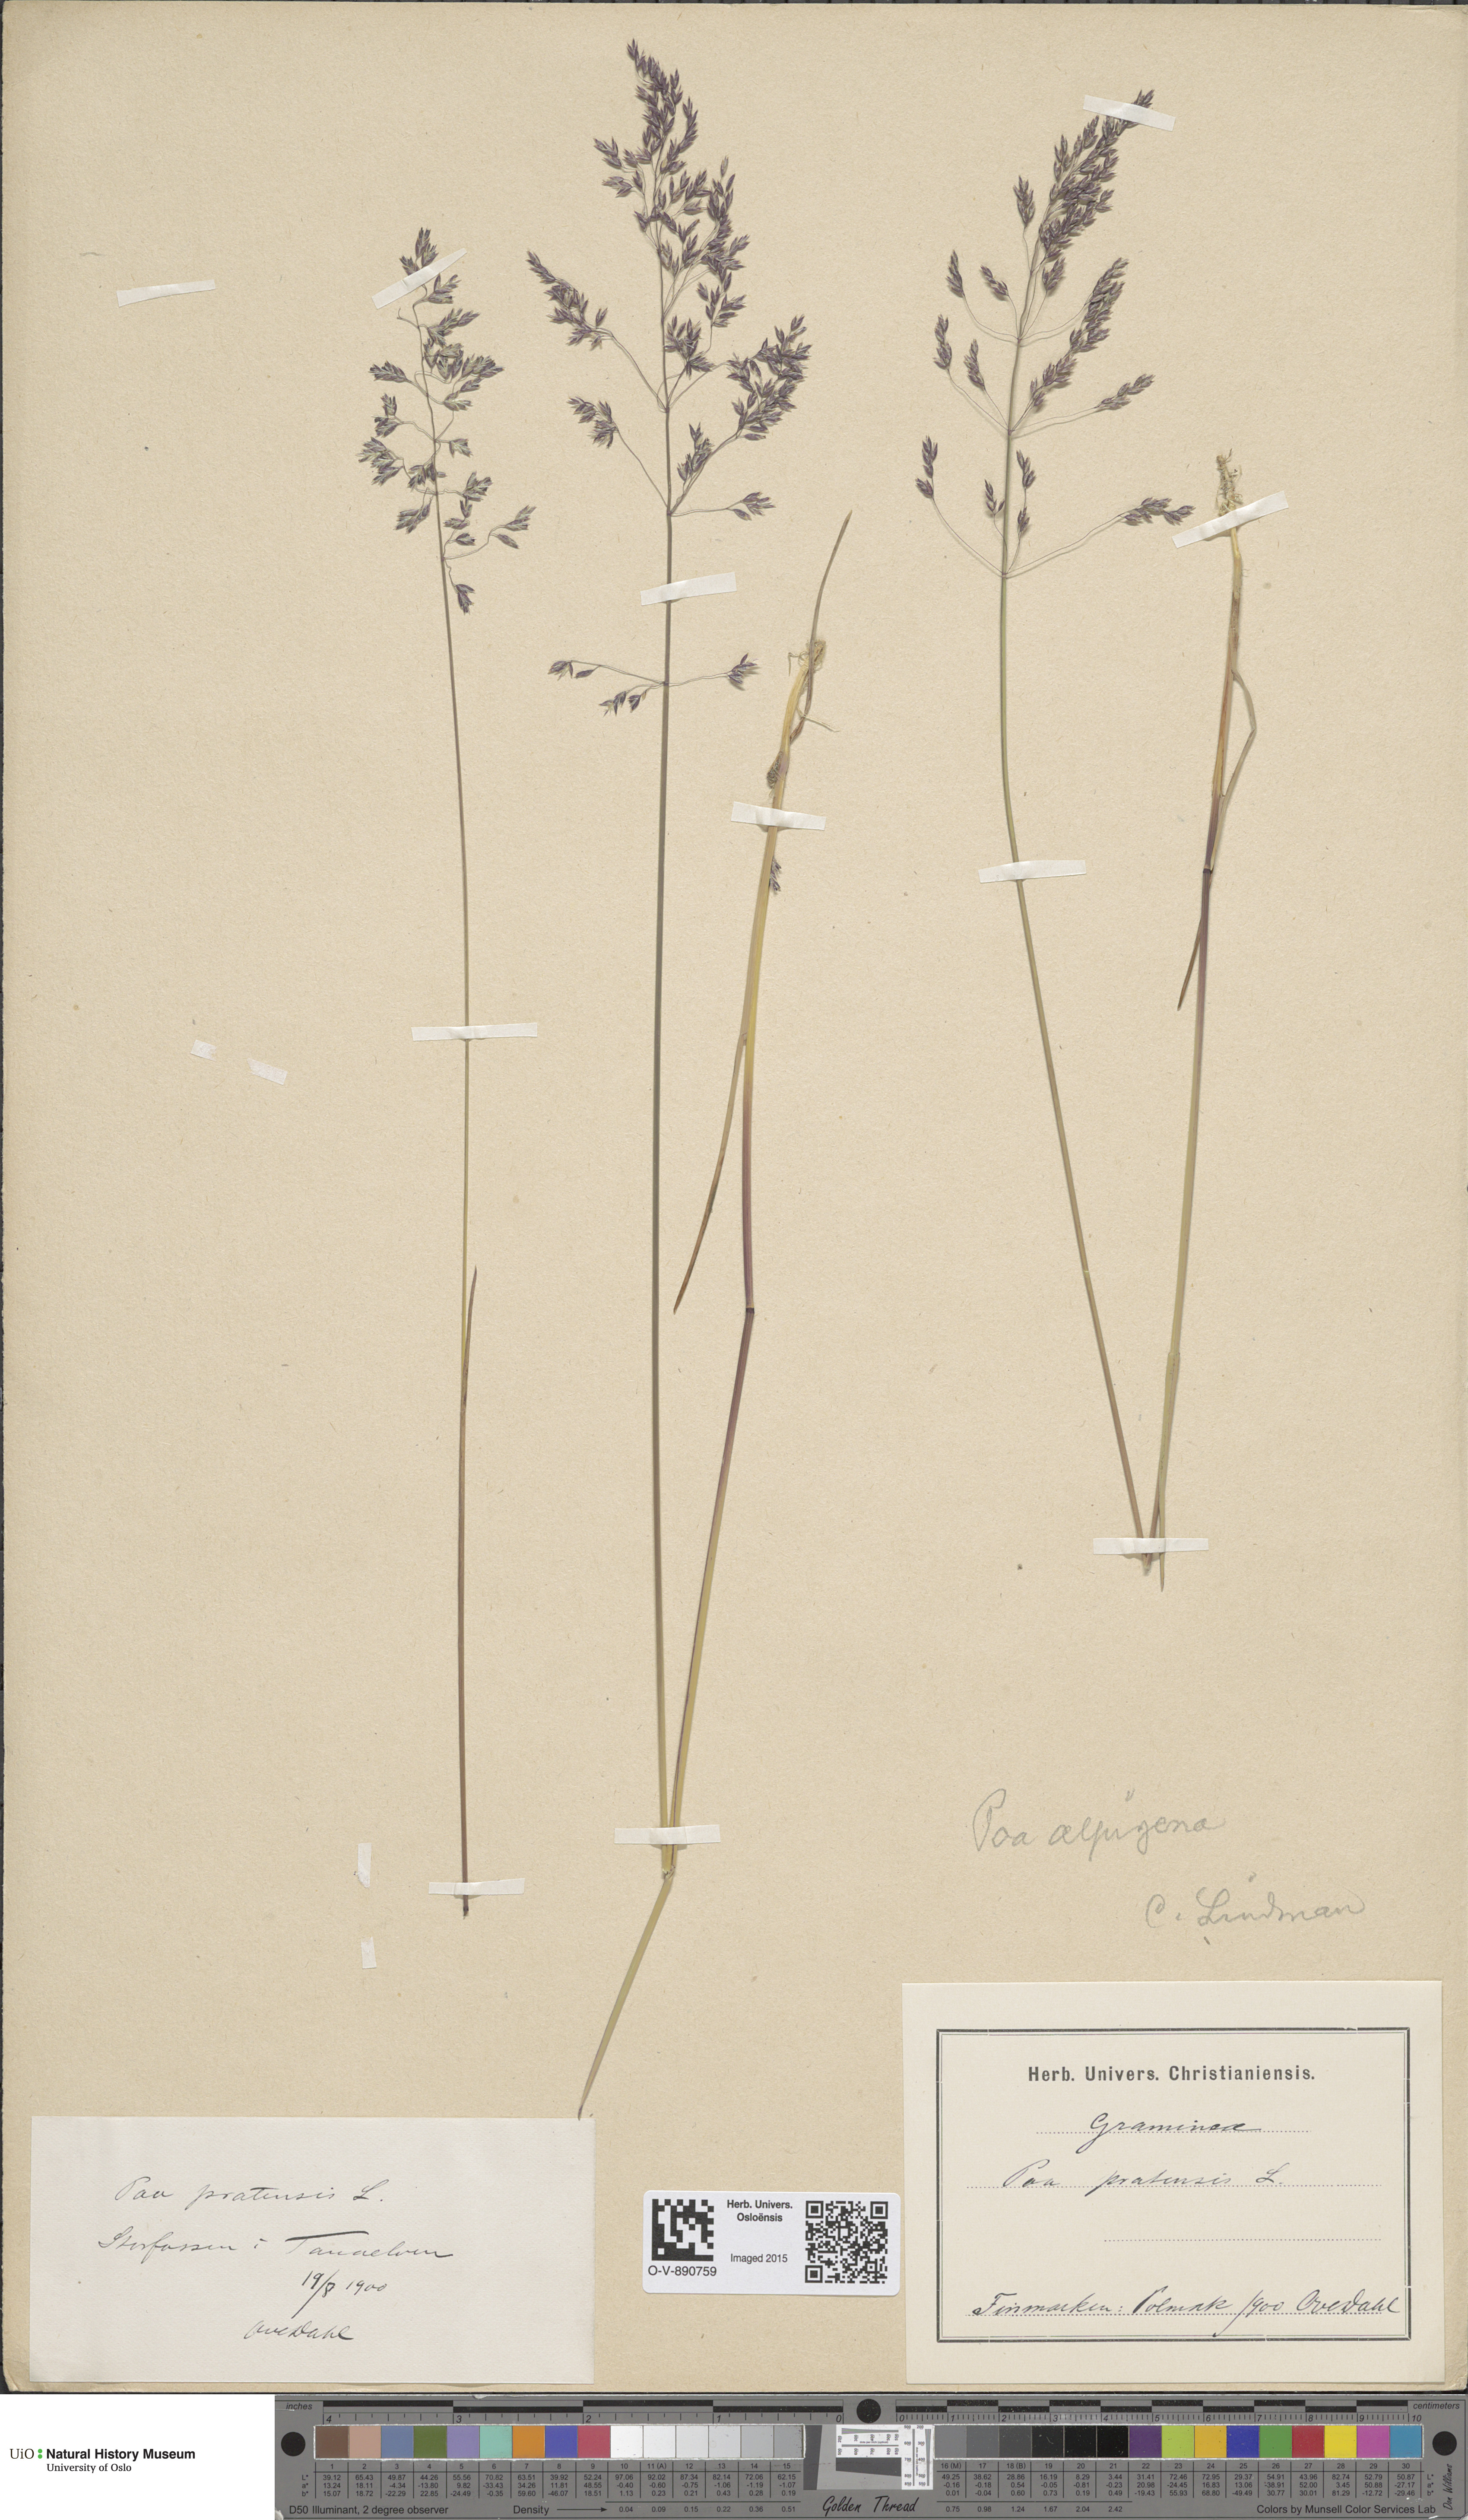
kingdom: Plantae
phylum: Tracheophyta
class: Liliopsida
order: Poales
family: Poaceae
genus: Poa
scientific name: Poa alpigena
